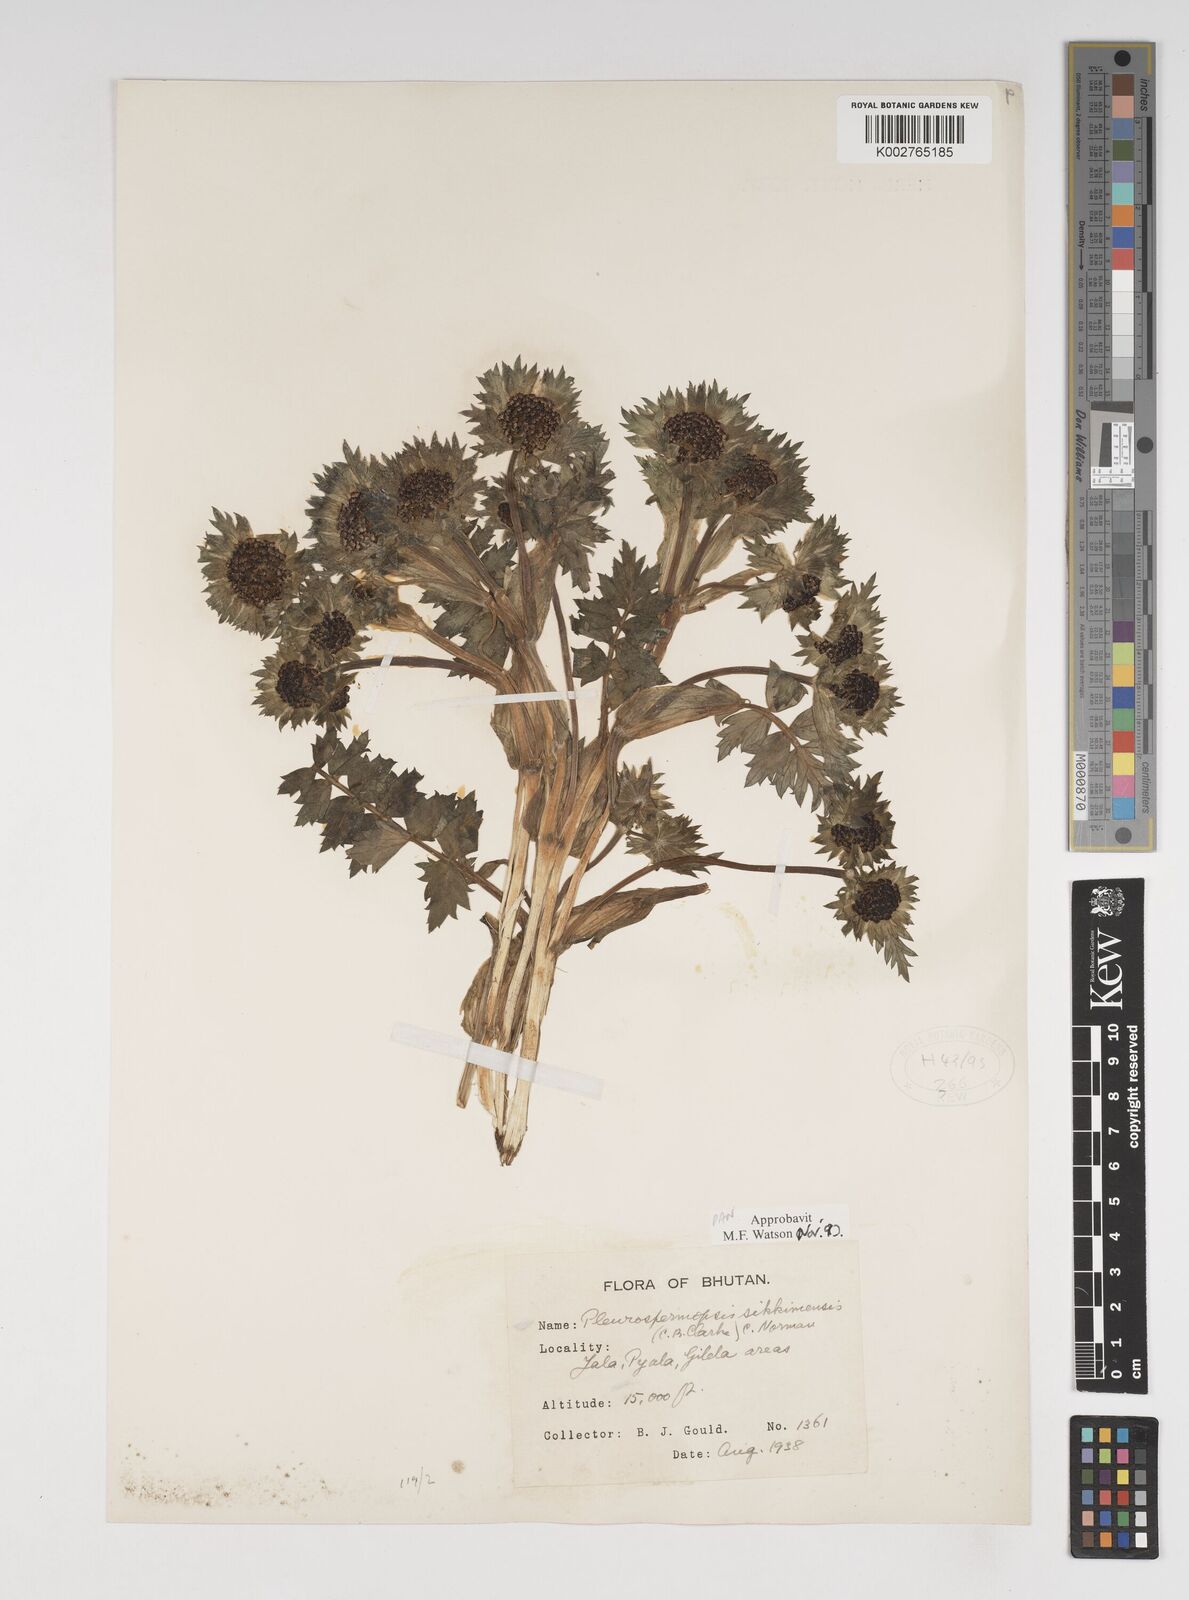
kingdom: Plantae
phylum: Tracheophyta
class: Magnoliopsida
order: Apiales
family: Apiaceae
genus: Pleurospermopsis
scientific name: Pleurospermopsis sikkimensis
